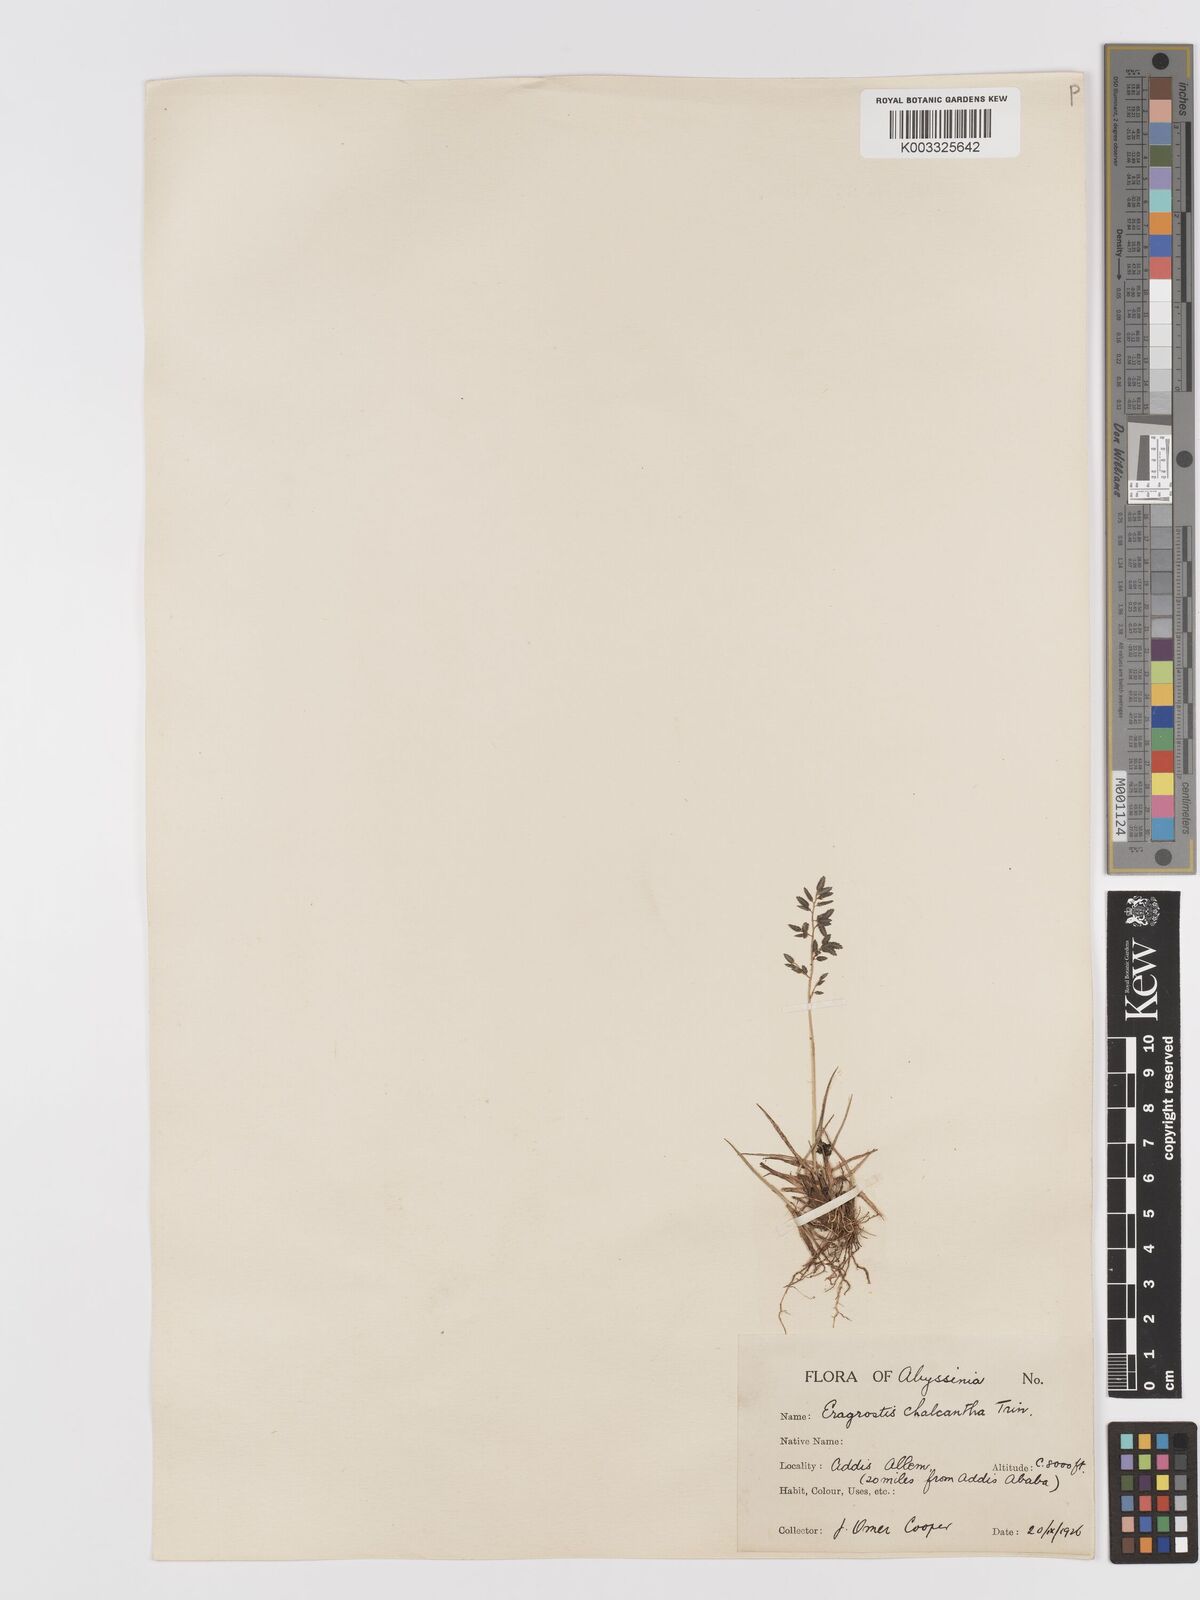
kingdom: Plantae
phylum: Tracheophyta
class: Liliopsida
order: Poales
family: Poaceae
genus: Eragrostis
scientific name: Eragrostis schweinfurthii
